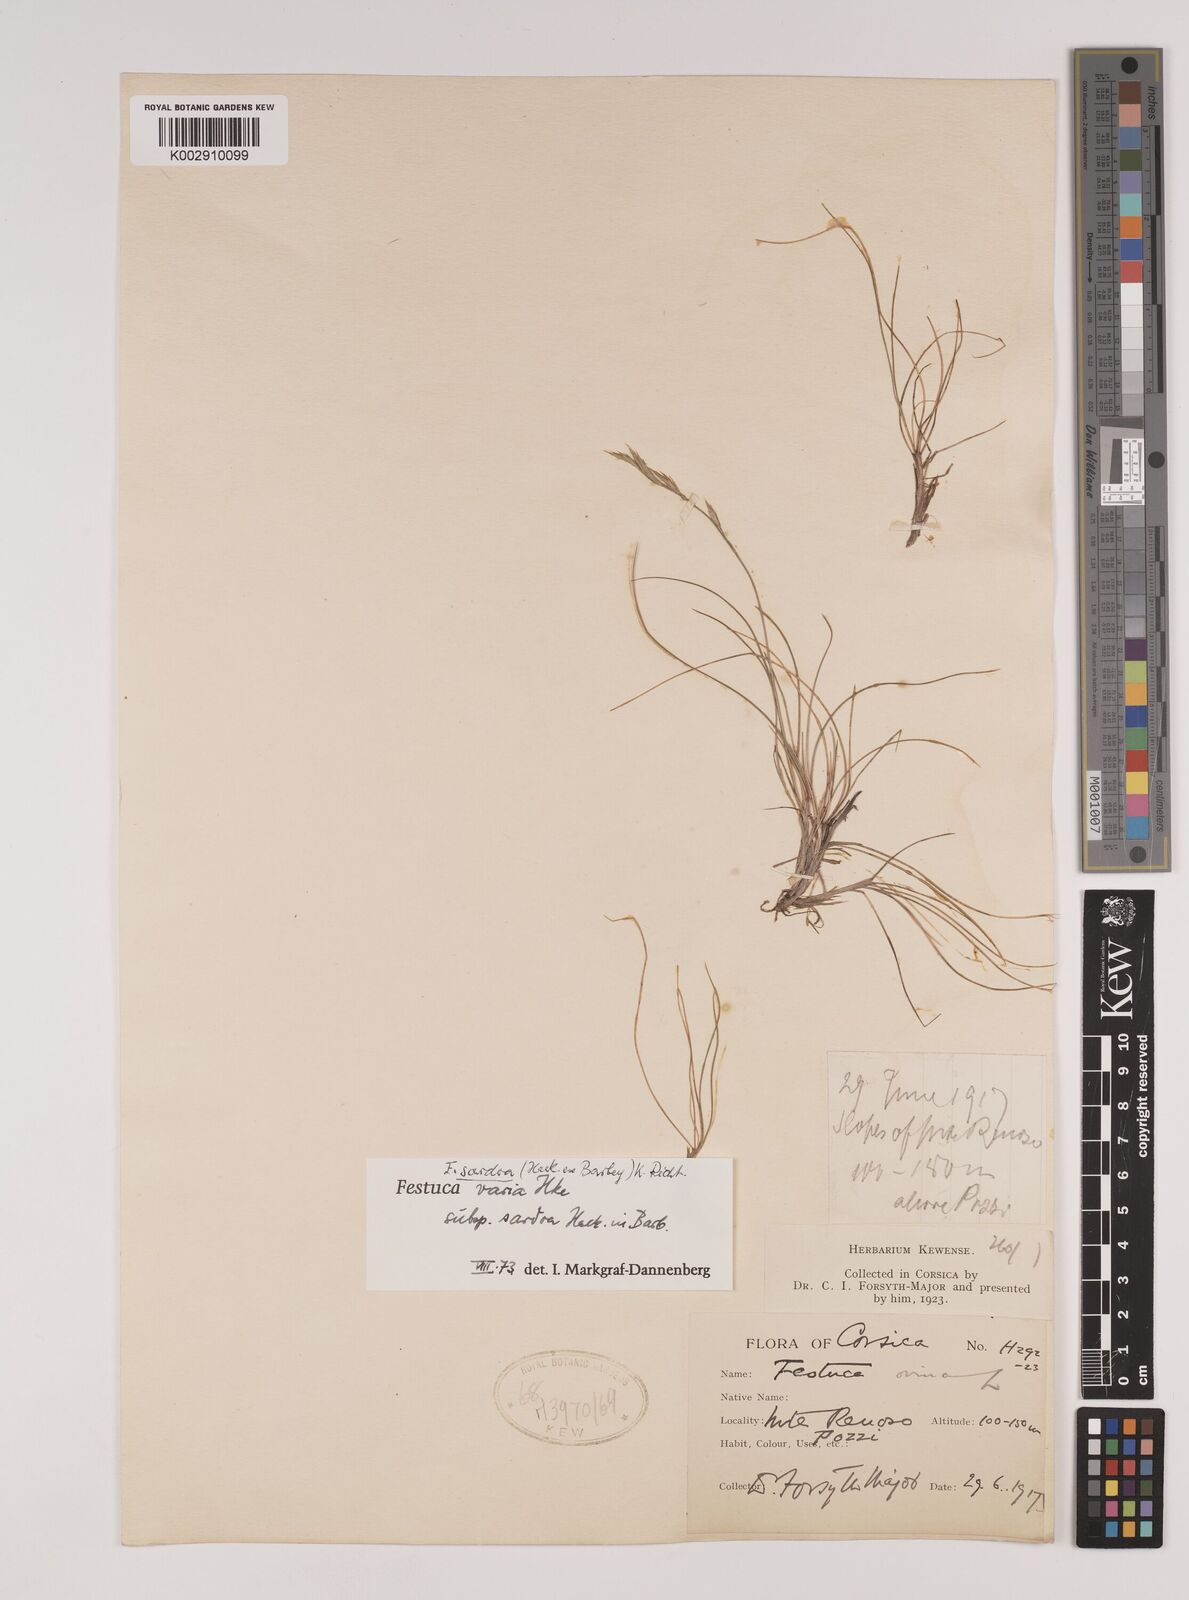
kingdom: Plantae
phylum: Tracheophyta
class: Liliopsida
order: Poales
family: Poaceae
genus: Festuca
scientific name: Festuca sardoa
